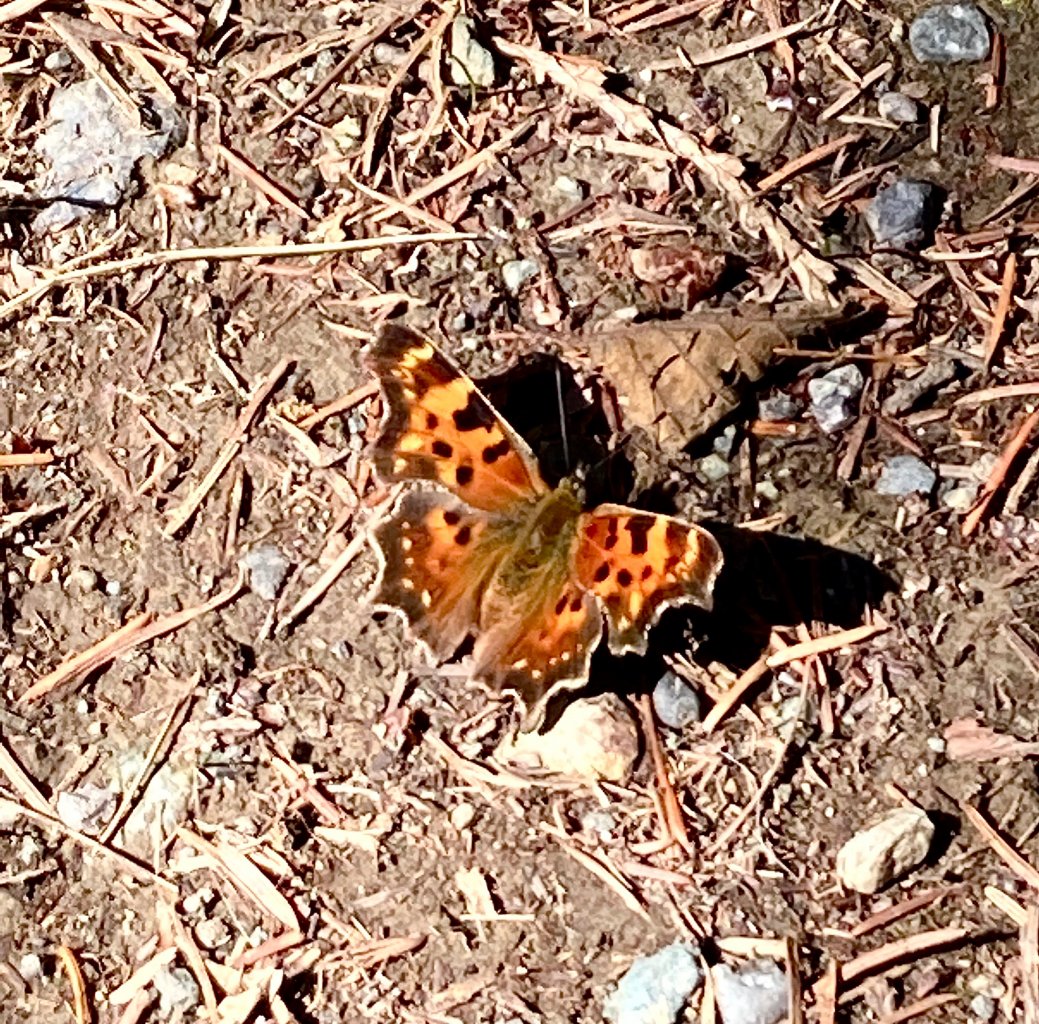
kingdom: Animalia
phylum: Arthropoda
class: Insecta
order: Lepidoptera
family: Nymphalidae
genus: Polygonia
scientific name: Polygonia satyrus
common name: Satyr Comma
